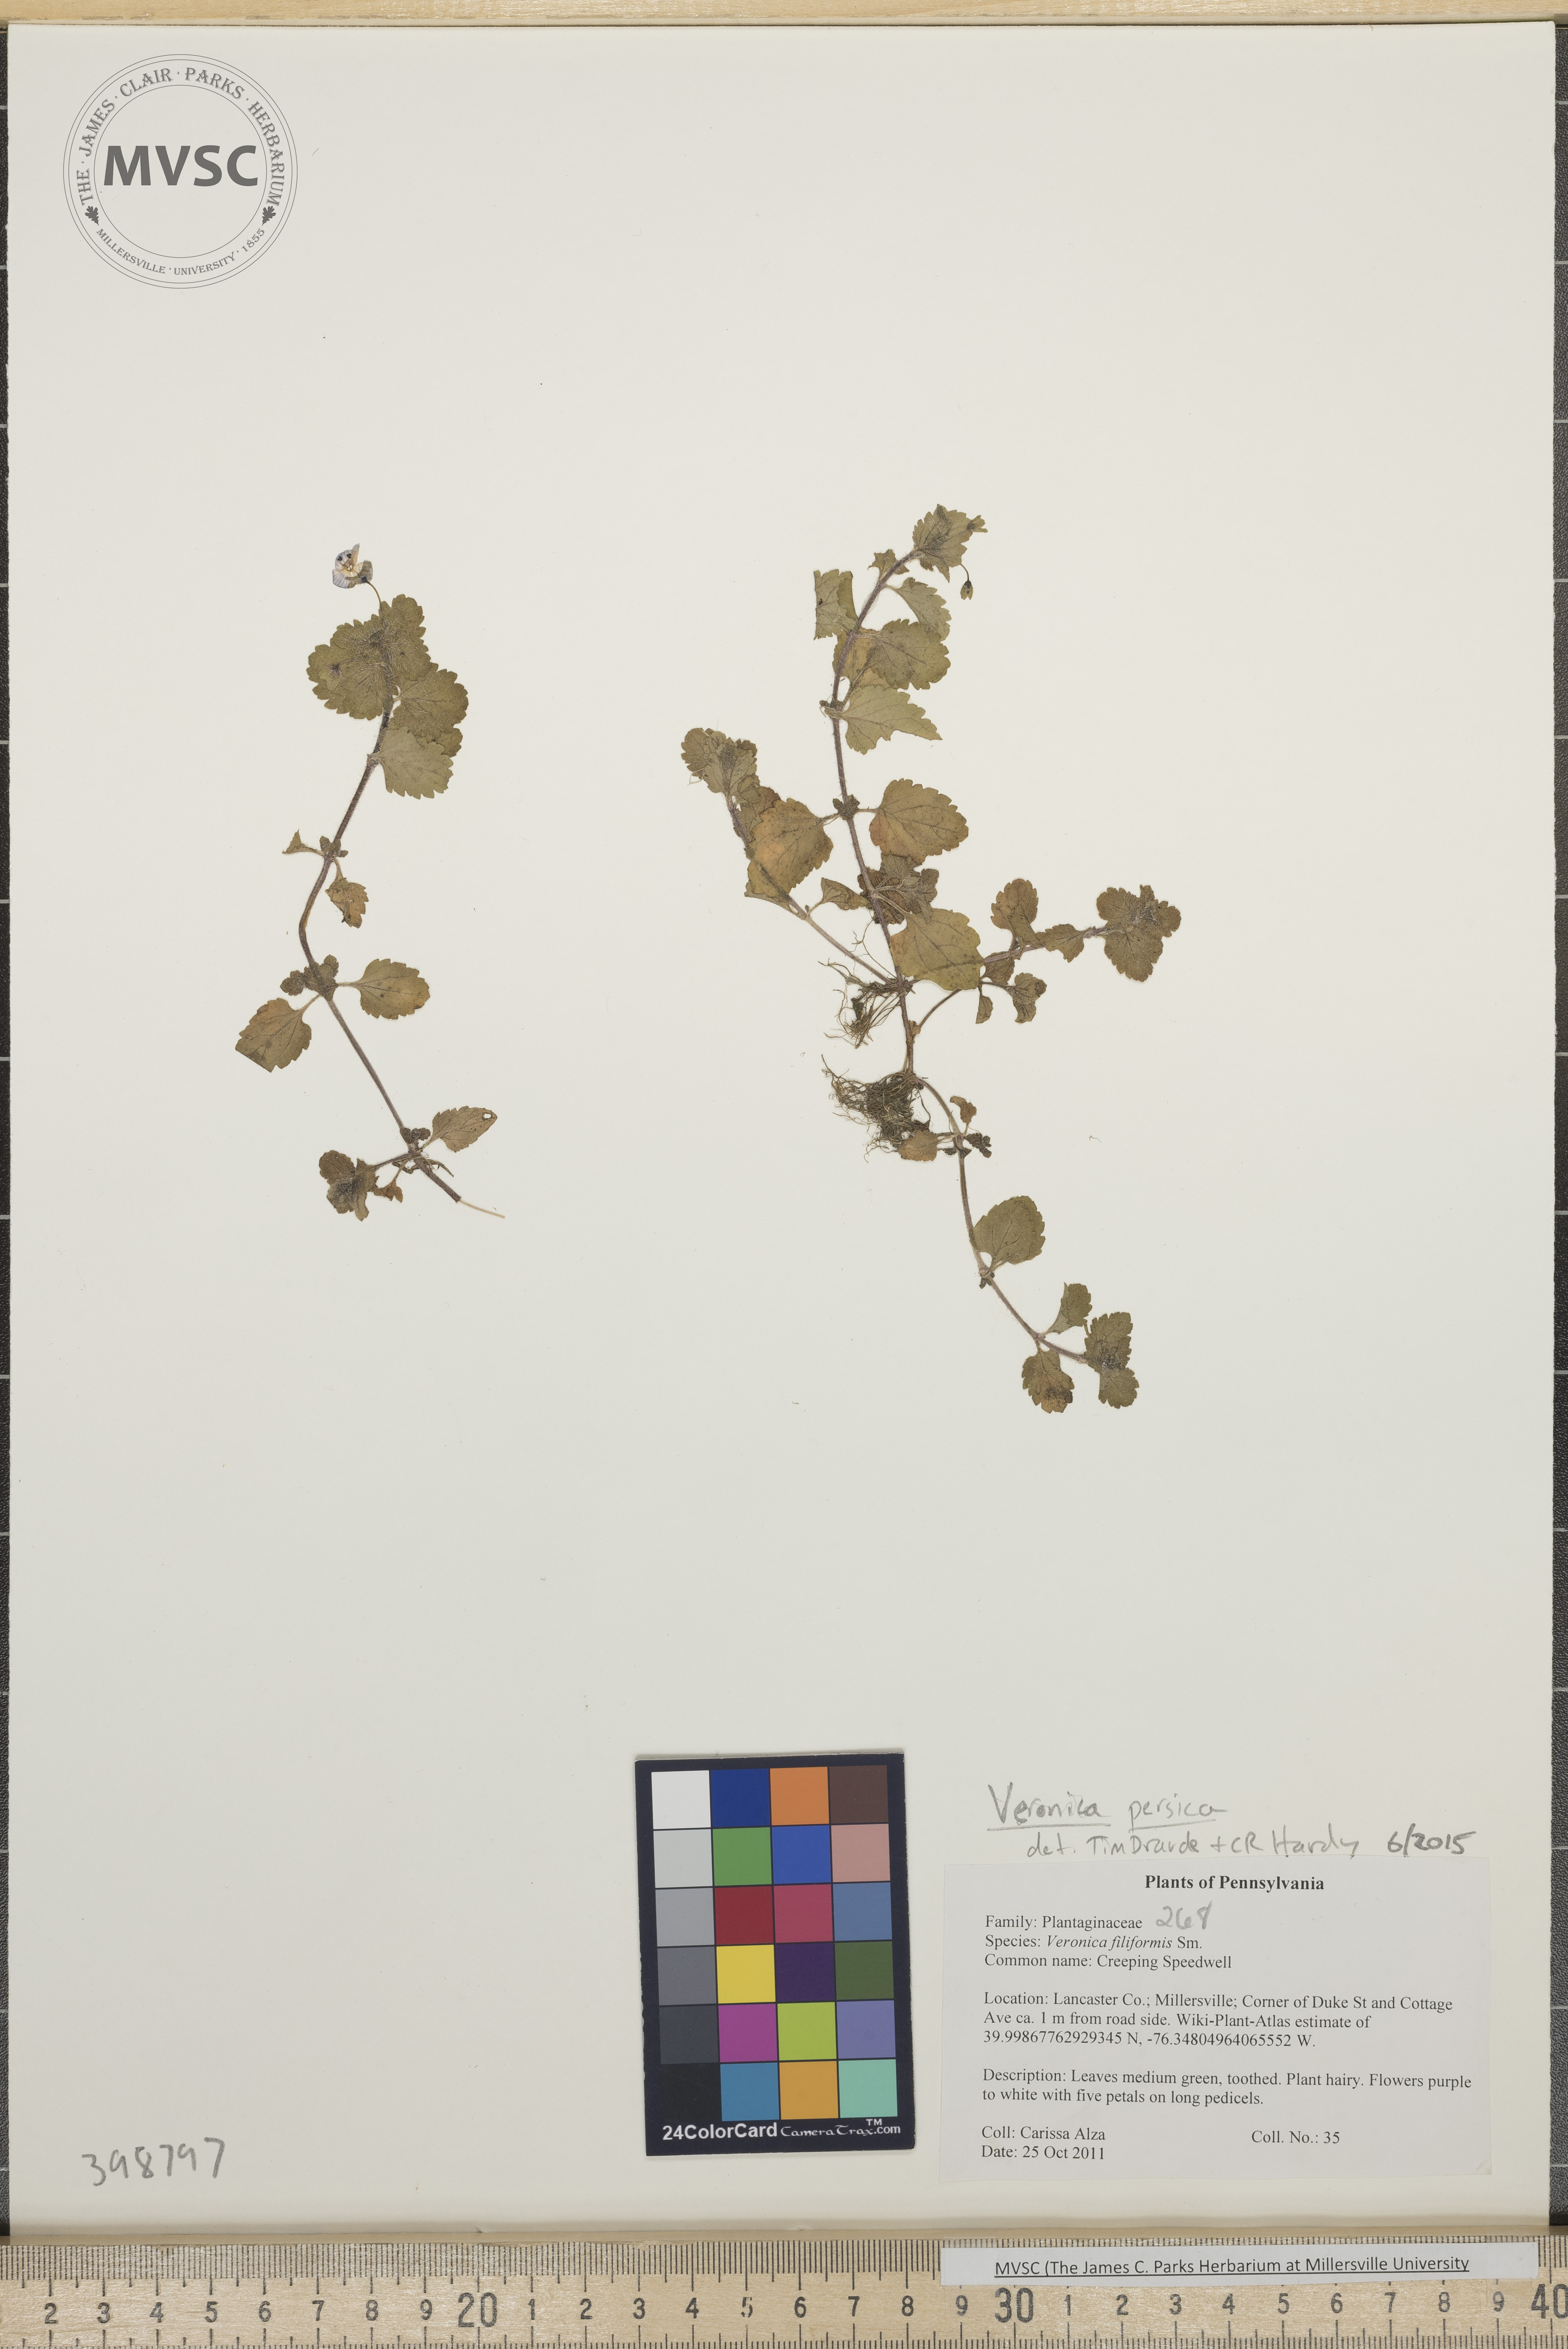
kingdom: Plantae
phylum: Tracheophyta
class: Magnoliopsida
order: Lamiales
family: Plantaginaceae
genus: Veronica
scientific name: Veronica persica
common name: Speedwell
